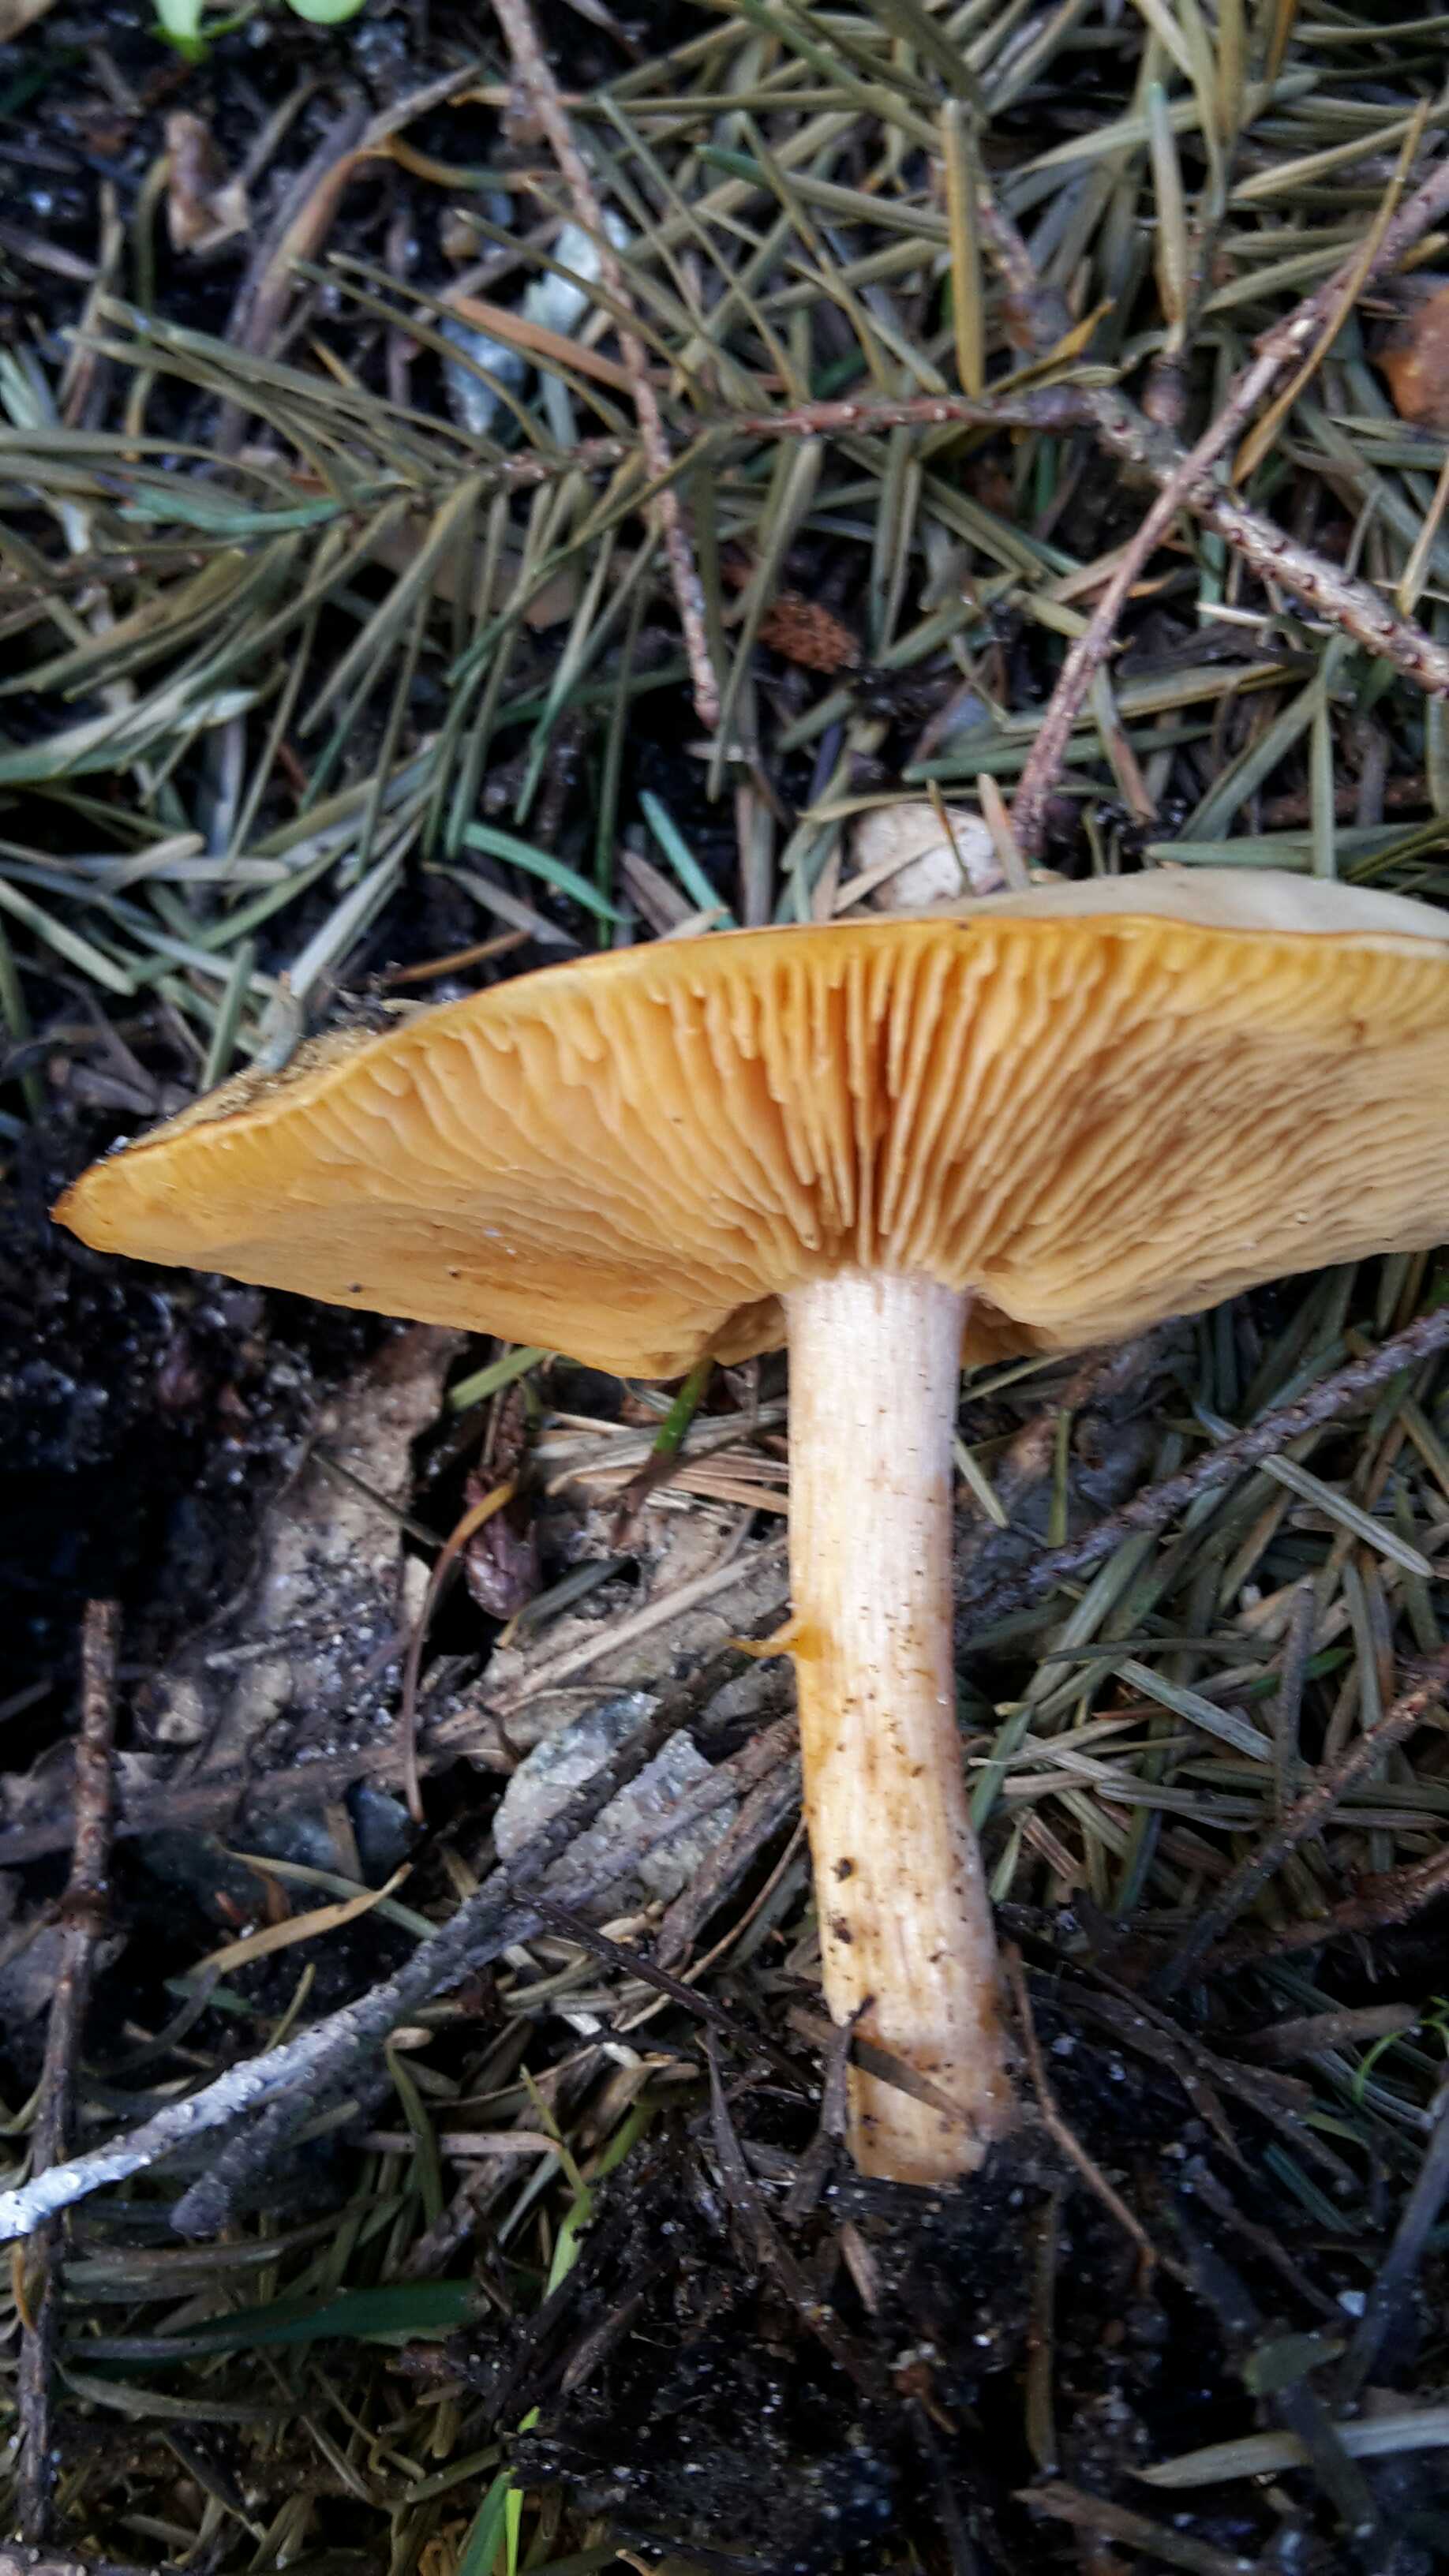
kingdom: Fungi
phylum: Basidiomycota
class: Agaricomycetes
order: Agaricales
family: Tricholomataceae
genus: Melanoleuca
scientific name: Melanoleuca cognata
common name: gyldengrå munkehat
